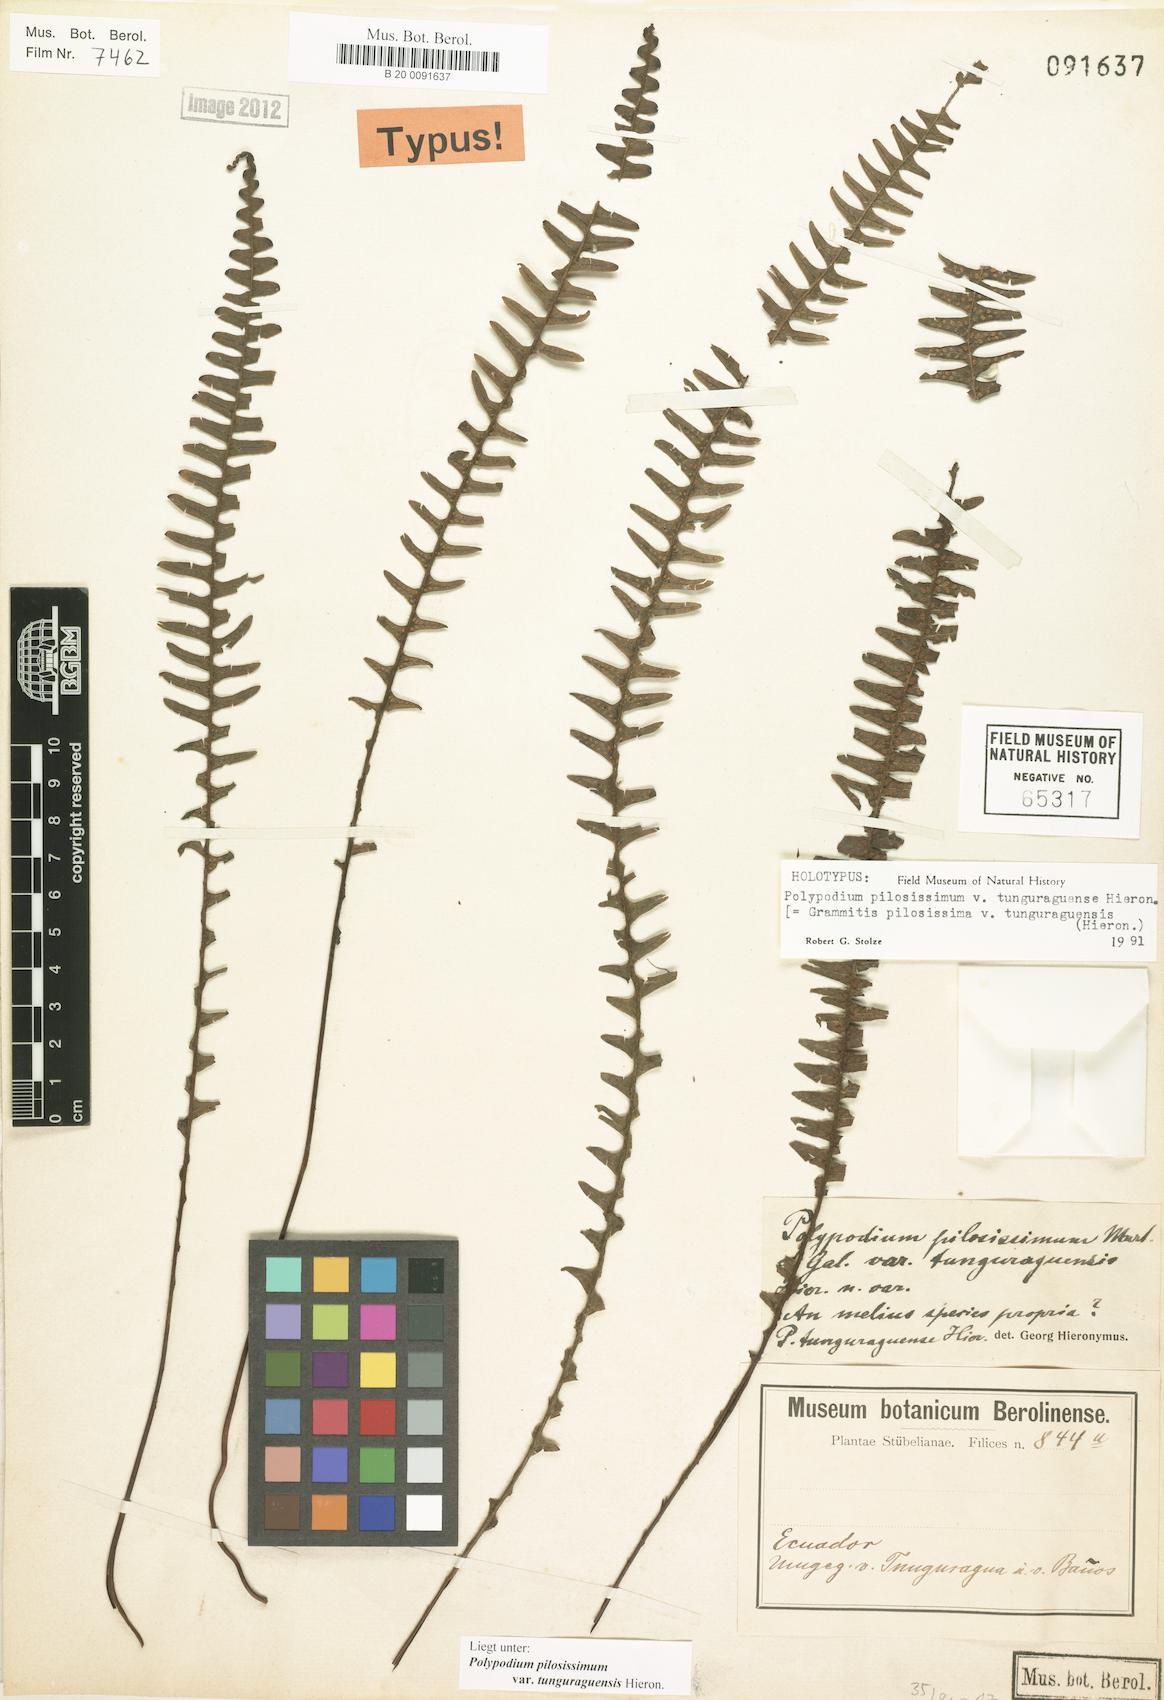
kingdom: Plantae
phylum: Tracheophyta
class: Polypodiopsida
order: Polypodiales
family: Polypodiaceae
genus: Melpomene
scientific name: Melpomene pilosissima
